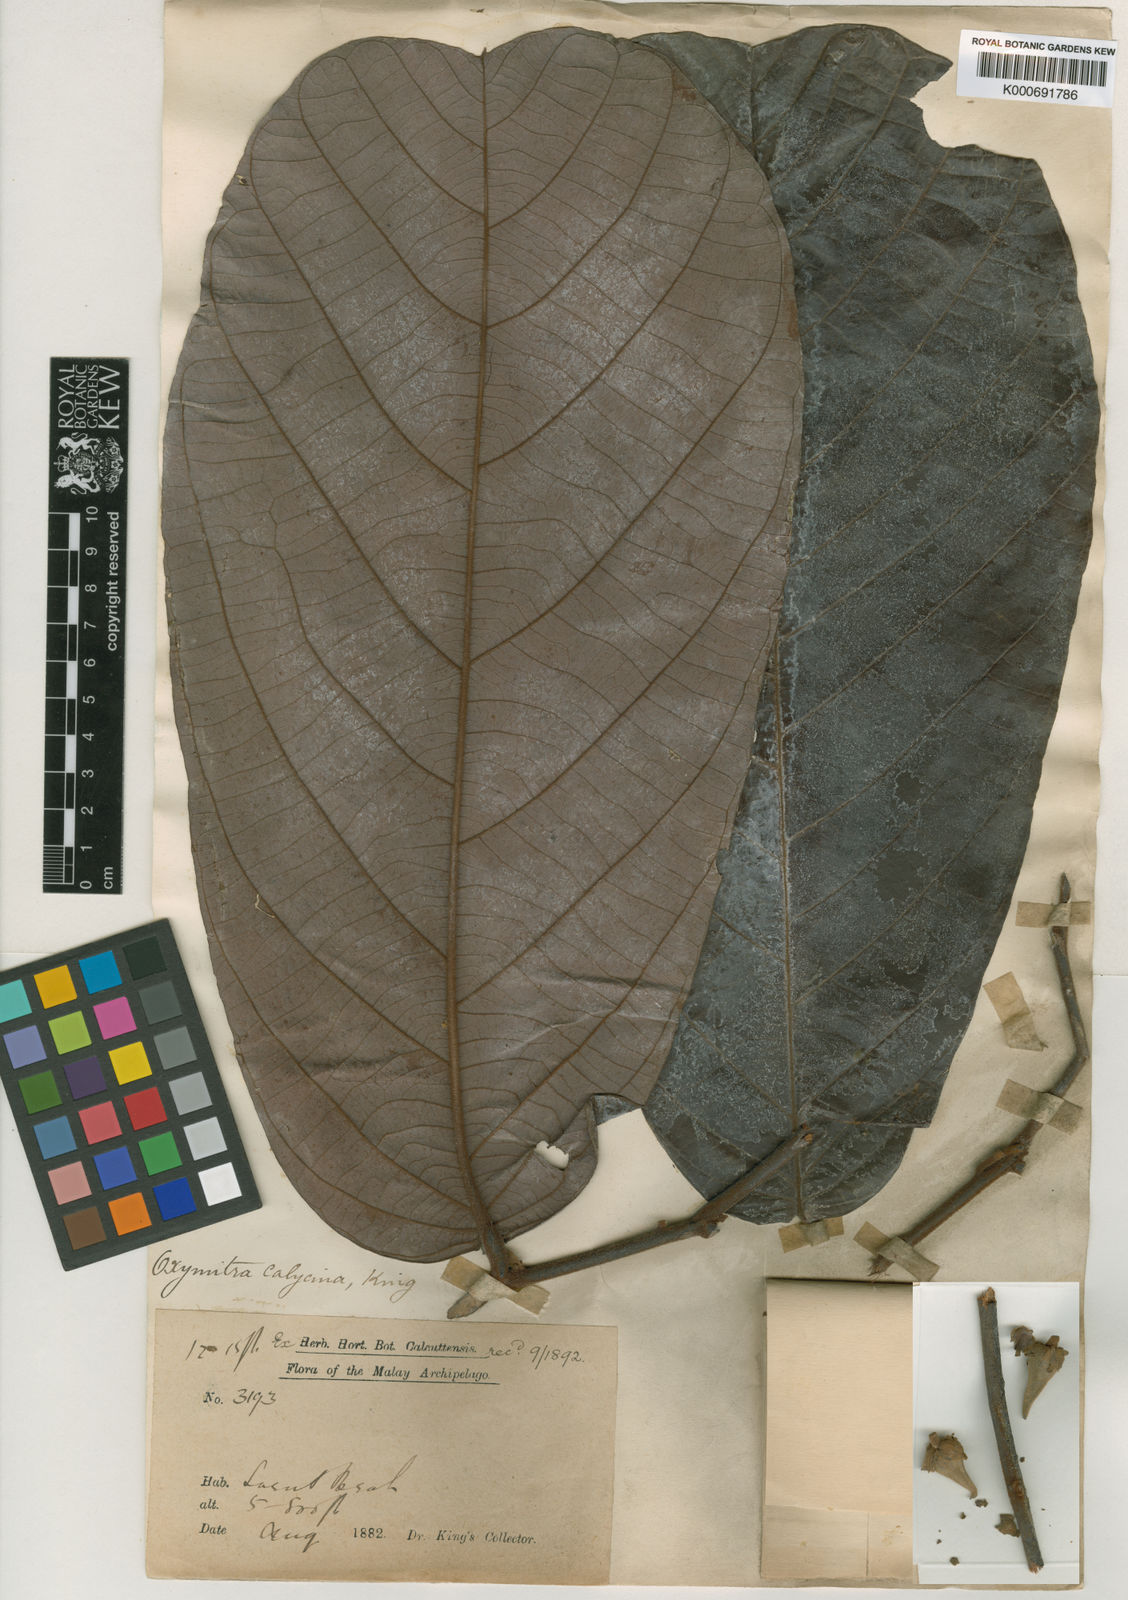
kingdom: Plantae
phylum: Tracheophyta
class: Magnoliopsida
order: Magnoliales
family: Annonaceae
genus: Friesodielsia
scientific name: Friesodielsia calycina
